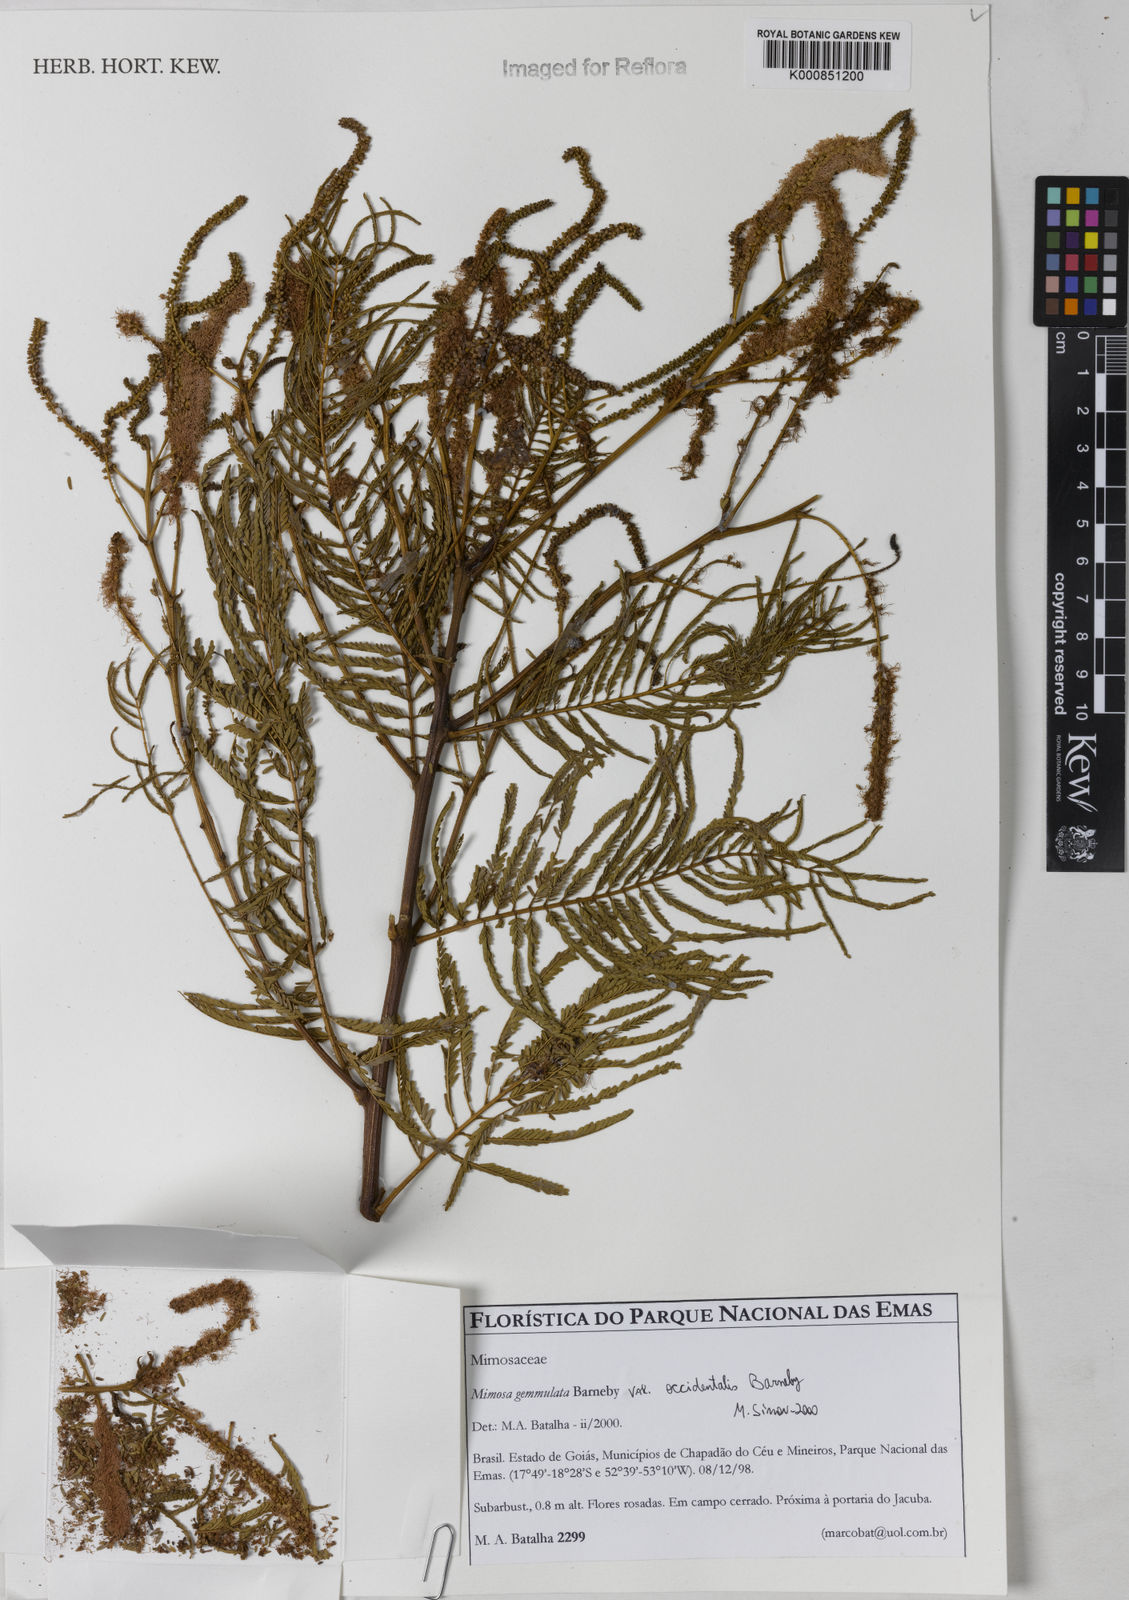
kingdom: Plantae
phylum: Tracheophyta
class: Magnoliopsida
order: Fabales
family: Fabaceae
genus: Mimosa
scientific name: Mimosa caccavariana
